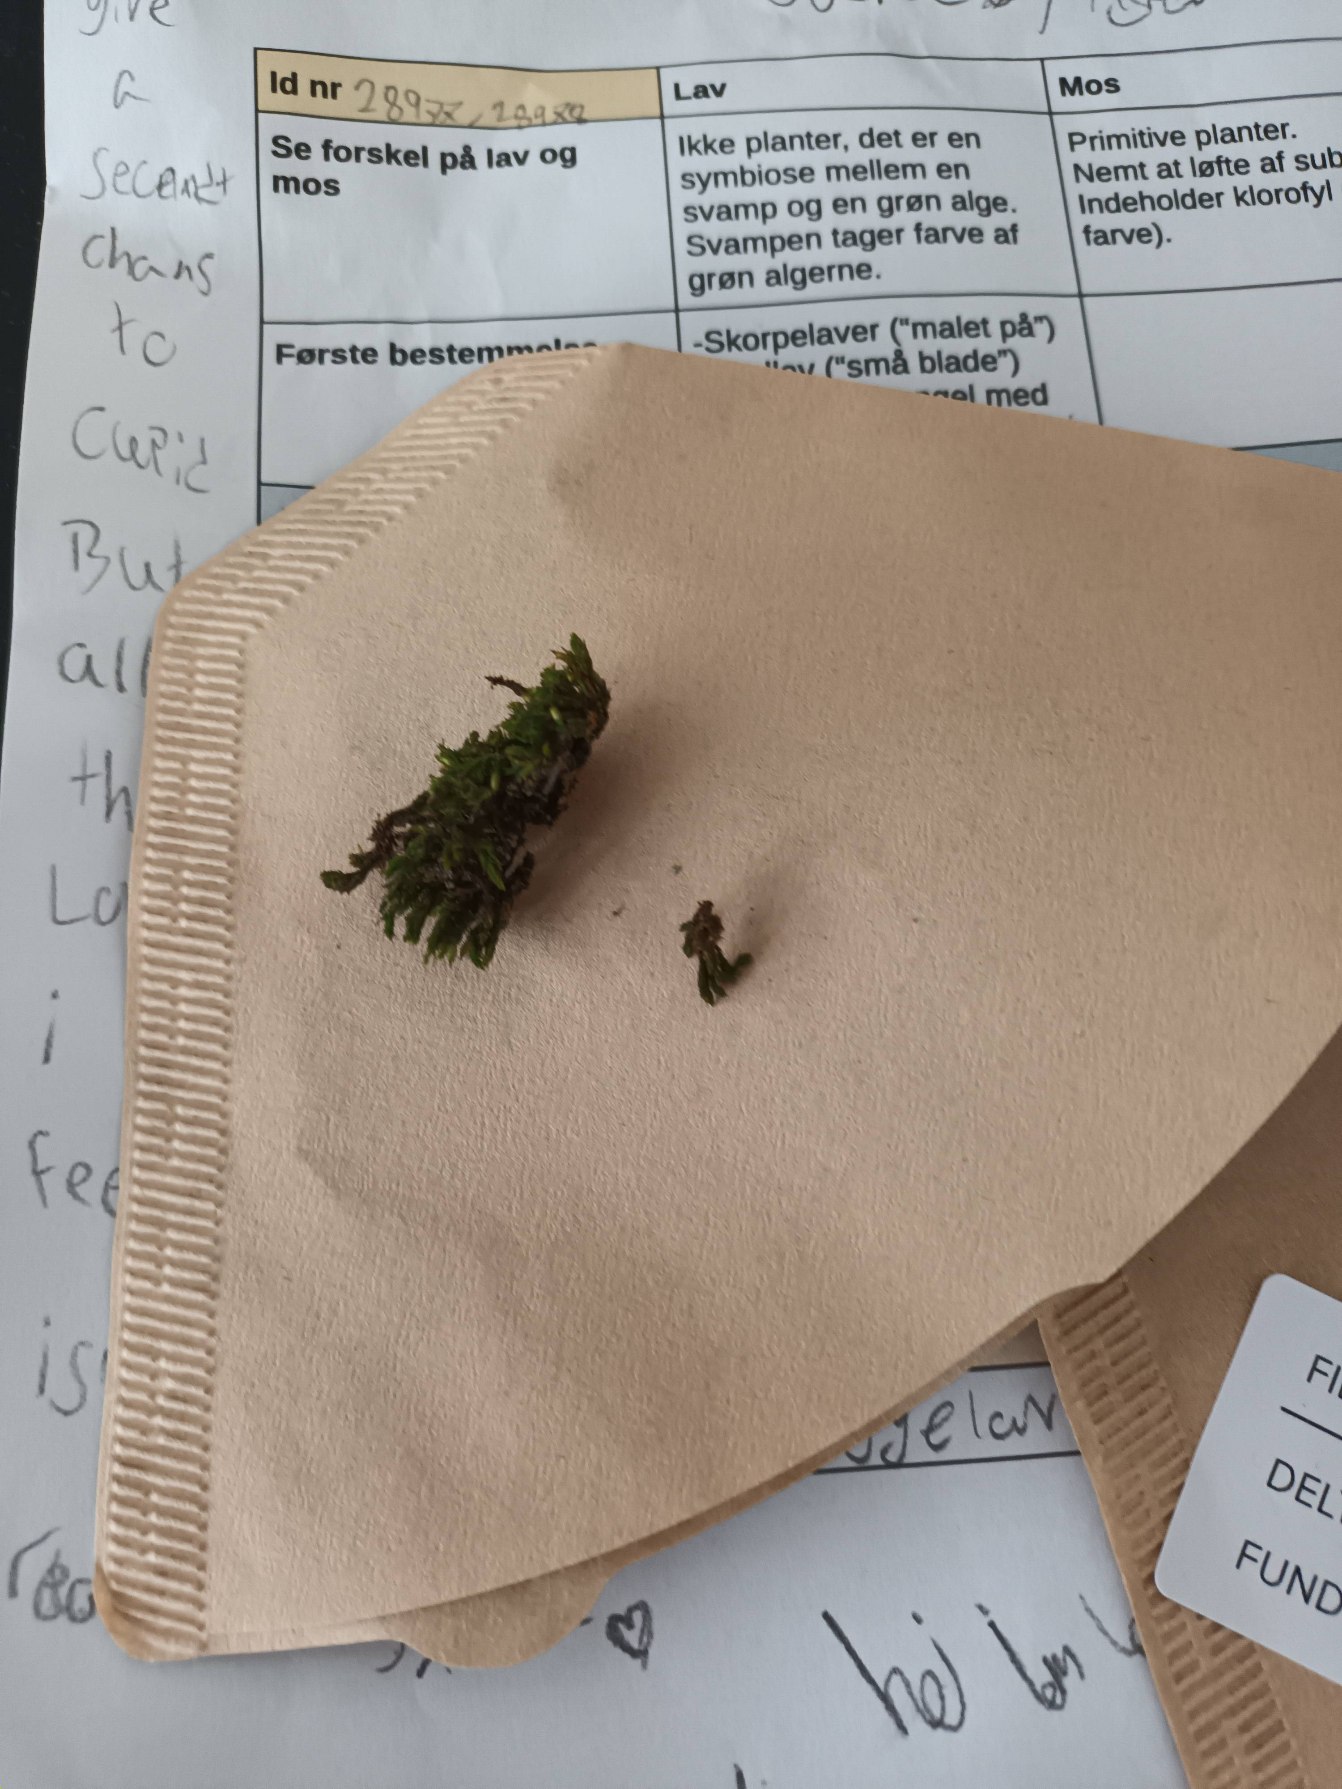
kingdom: Plantae
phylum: Bryophyta
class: Bryopsida
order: Orthotrichales
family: Orthotrichaceae
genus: Orthotrichum
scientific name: Orthotrichum
